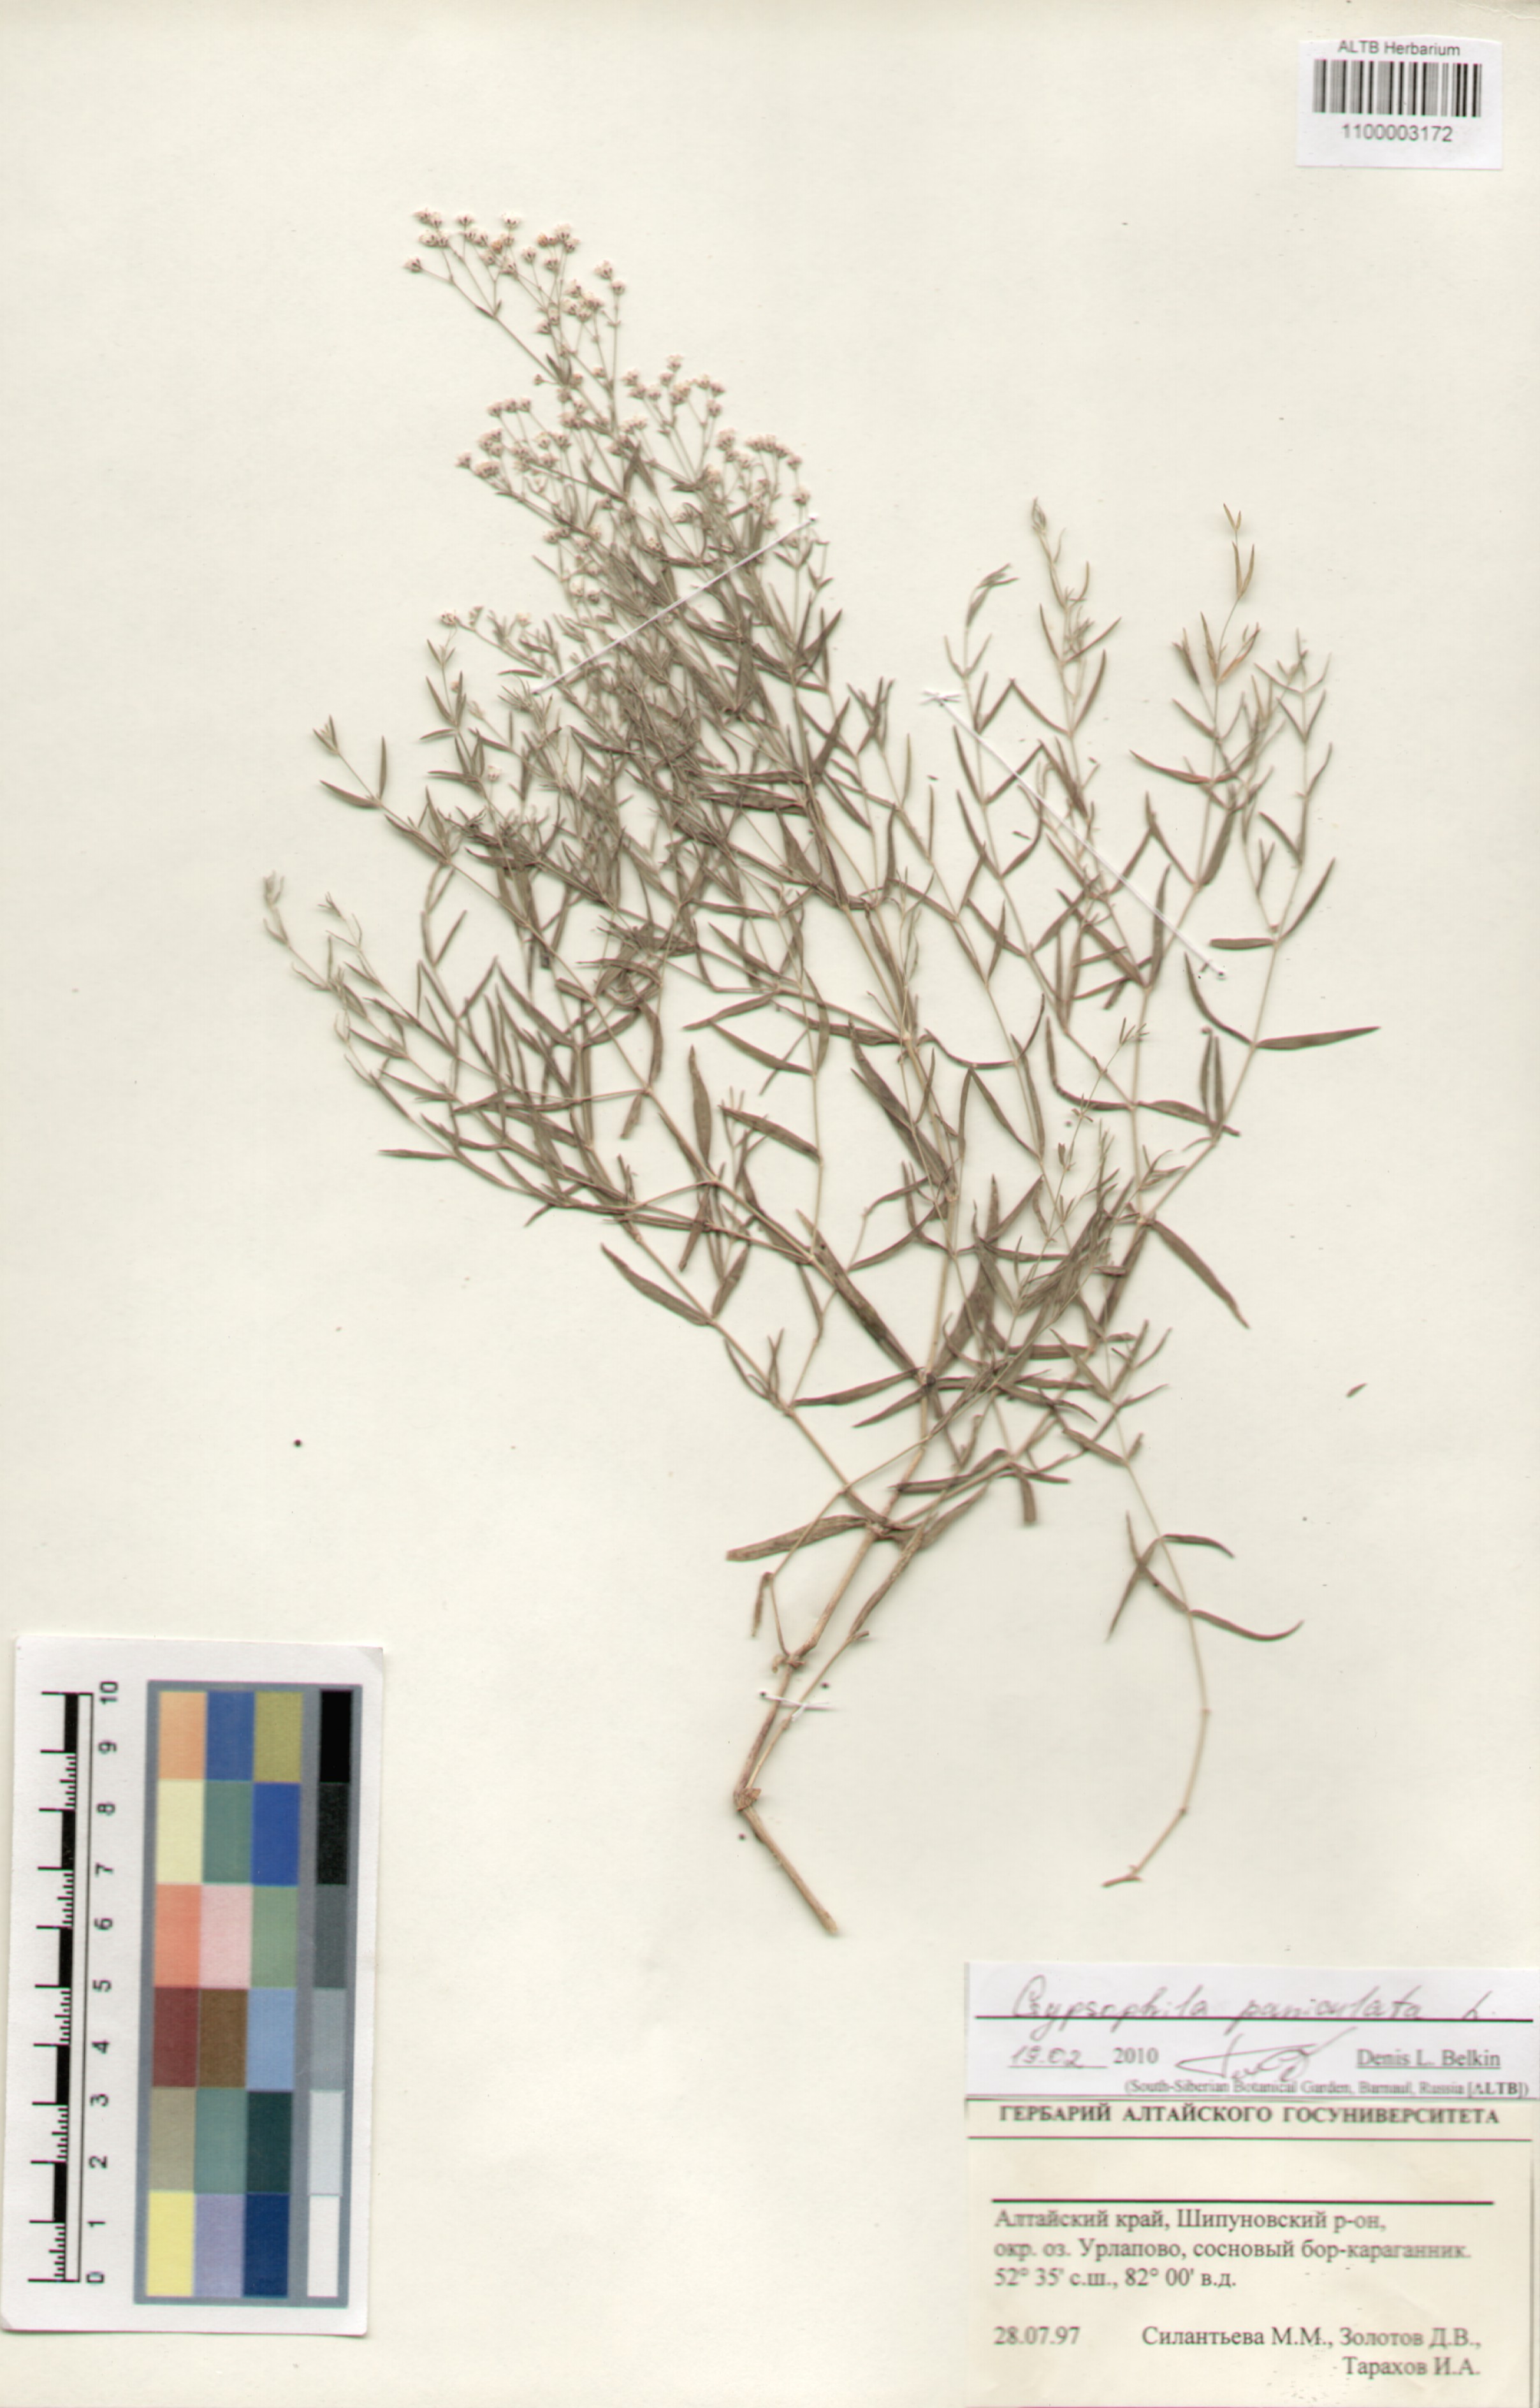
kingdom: Plantae
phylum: Tracheophyta
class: Magnoliopsida
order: Caryophyllales
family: Caryophyllaceae
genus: Gypsophila
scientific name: Gypsophila paniculata
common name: Baby's-breath
